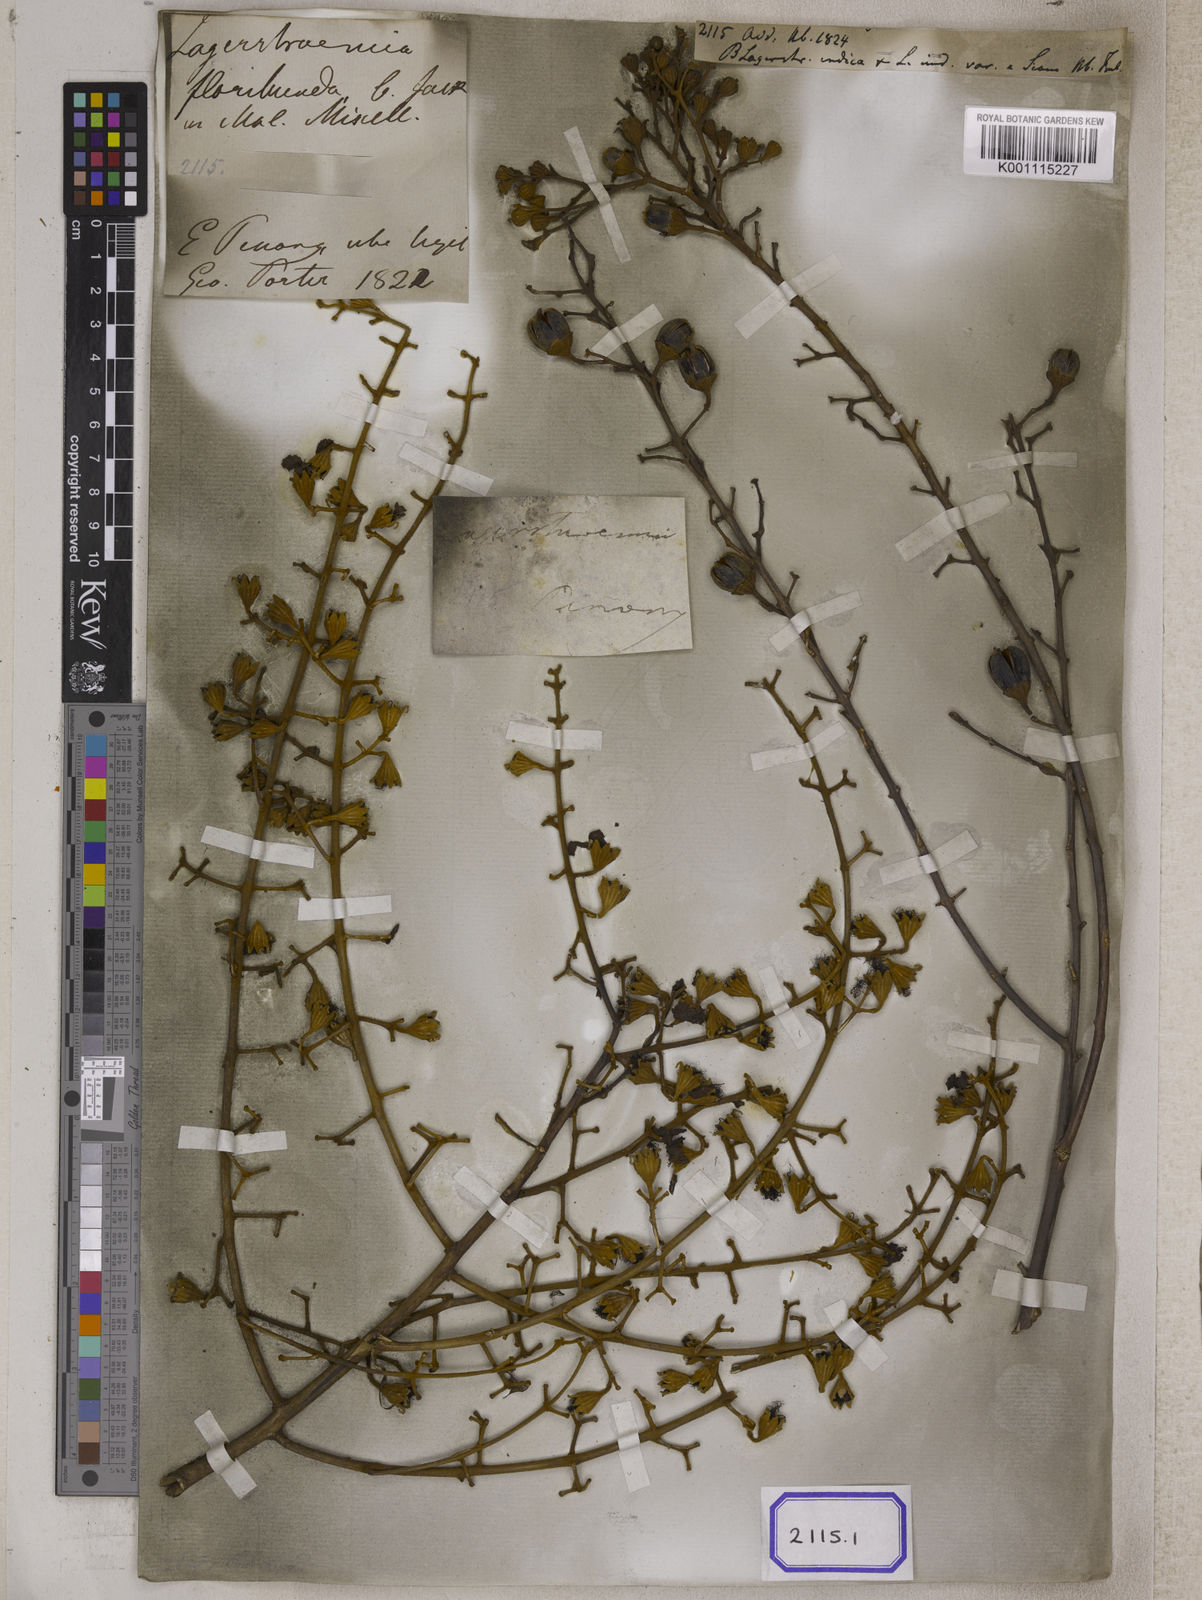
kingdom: Plantae
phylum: Tracheophyta
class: Magnoliopsida
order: Myrtales
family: Lythraceae
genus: Lagerstroemia
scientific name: Lagerstroemia floribunda
